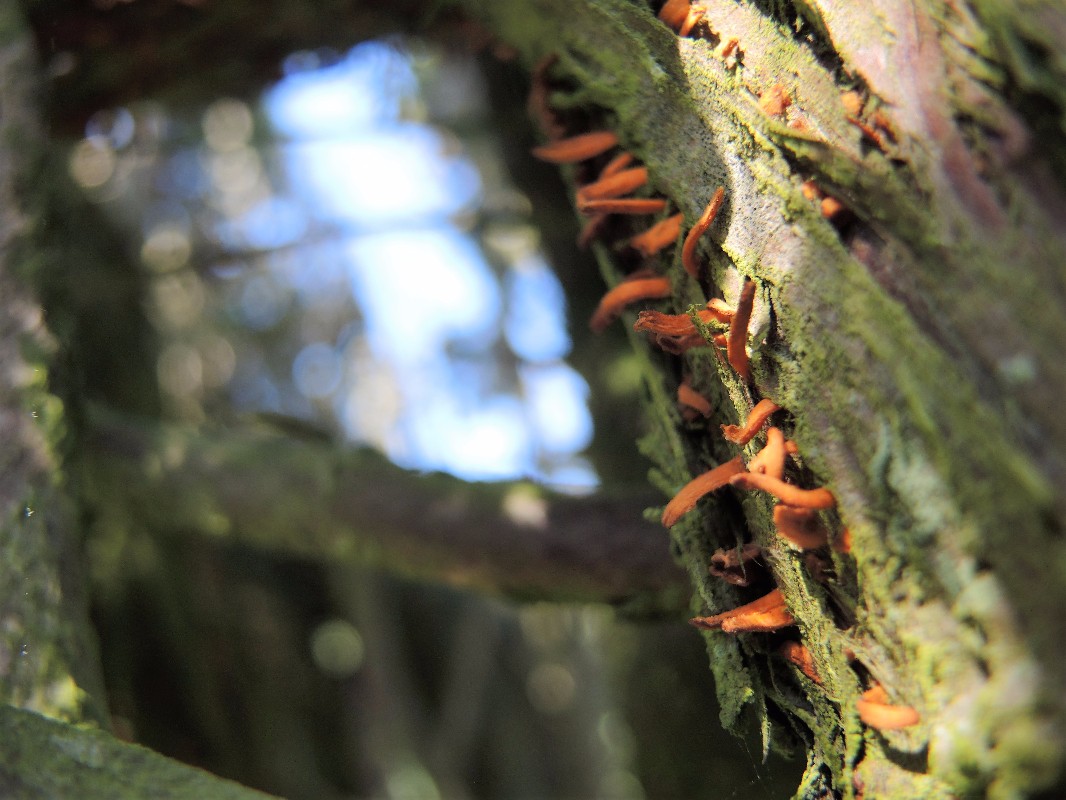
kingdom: Fungi
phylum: Basidiomycota
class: Pucciniomycetes
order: Pucciniales
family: Gymnosporangiaceae
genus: Gymnosporangium
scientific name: Gymnosporangium clavariiforme
